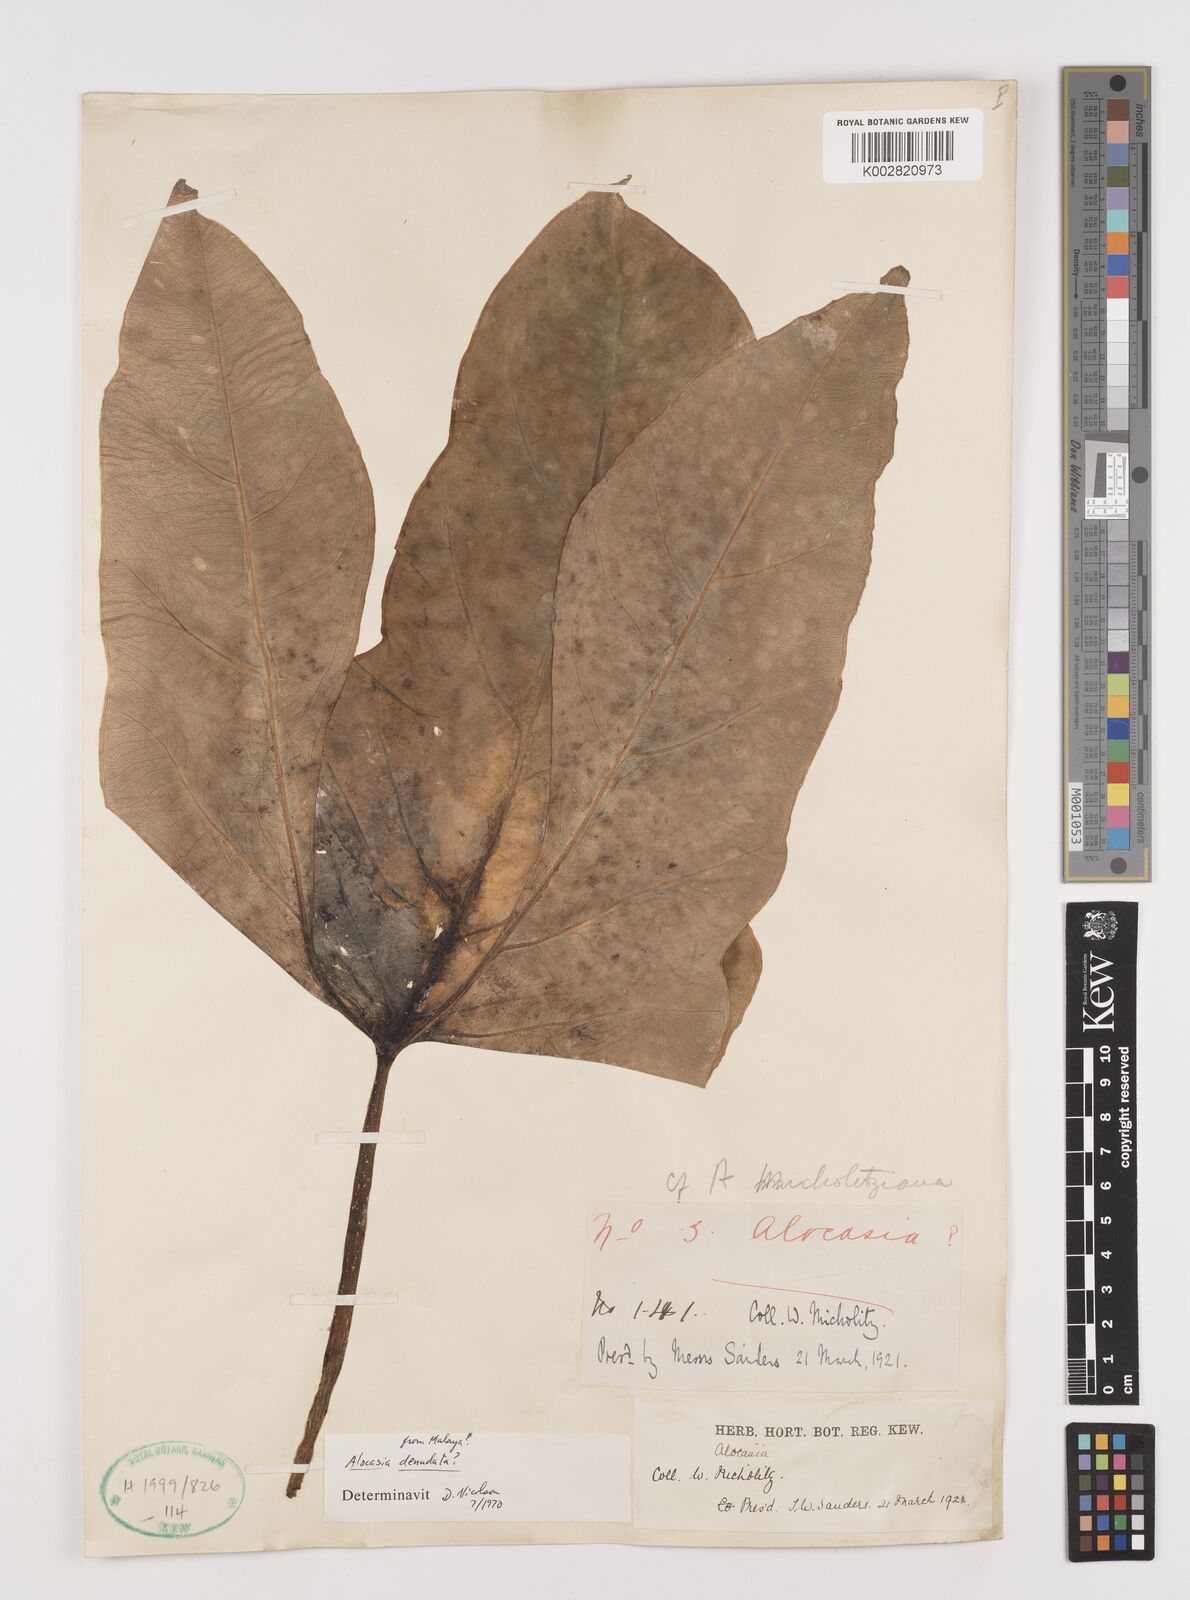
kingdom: Plantae
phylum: Tracheophyta
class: Liliopsida
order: Alismatales
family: Araceae
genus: Alocasia
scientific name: Alocasia longiloba
